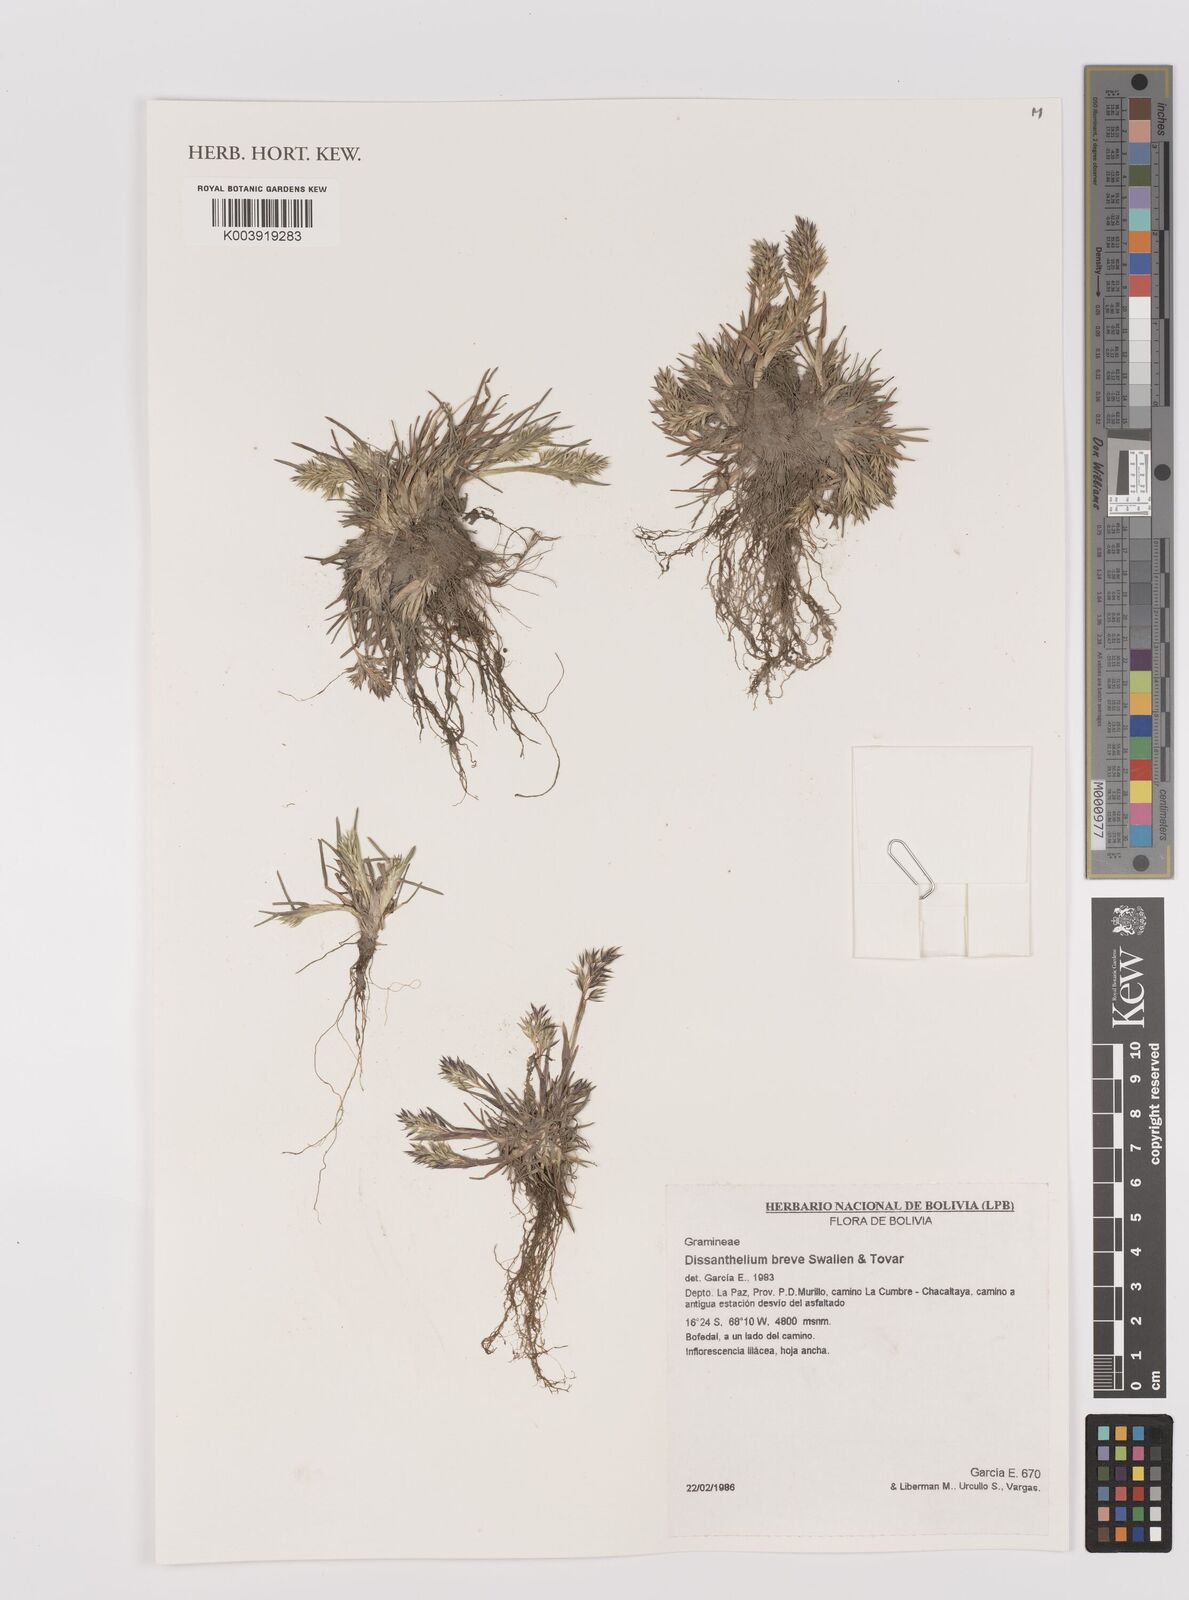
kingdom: Plantae
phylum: Tracheophyta
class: Liliopsida
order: Poales
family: Poaceae
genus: Poa
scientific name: Poa calycina
